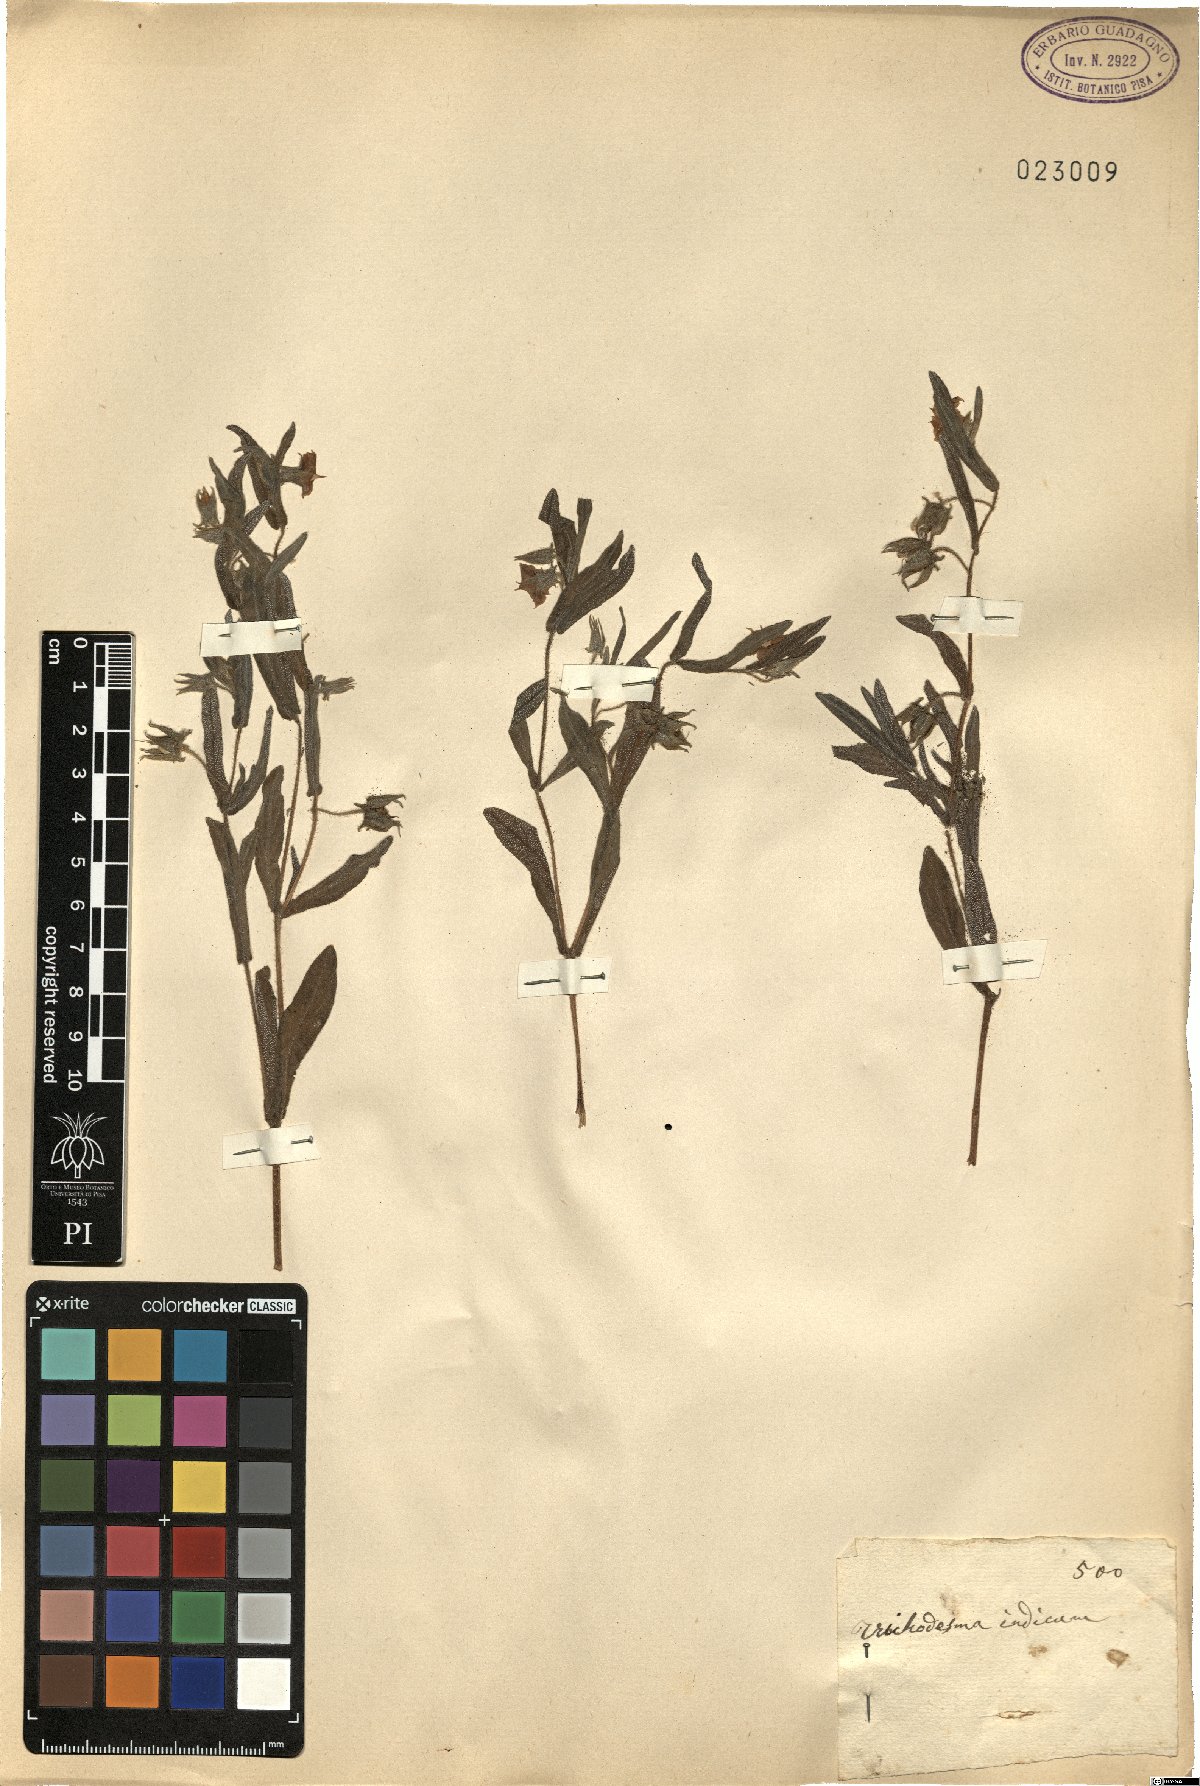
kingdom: Plantae
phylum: Tracheophyta
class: Magnoliopsida
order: Boraginales
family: Boraginaceae
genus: Trichodesma
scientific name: Trichodesma indicum
